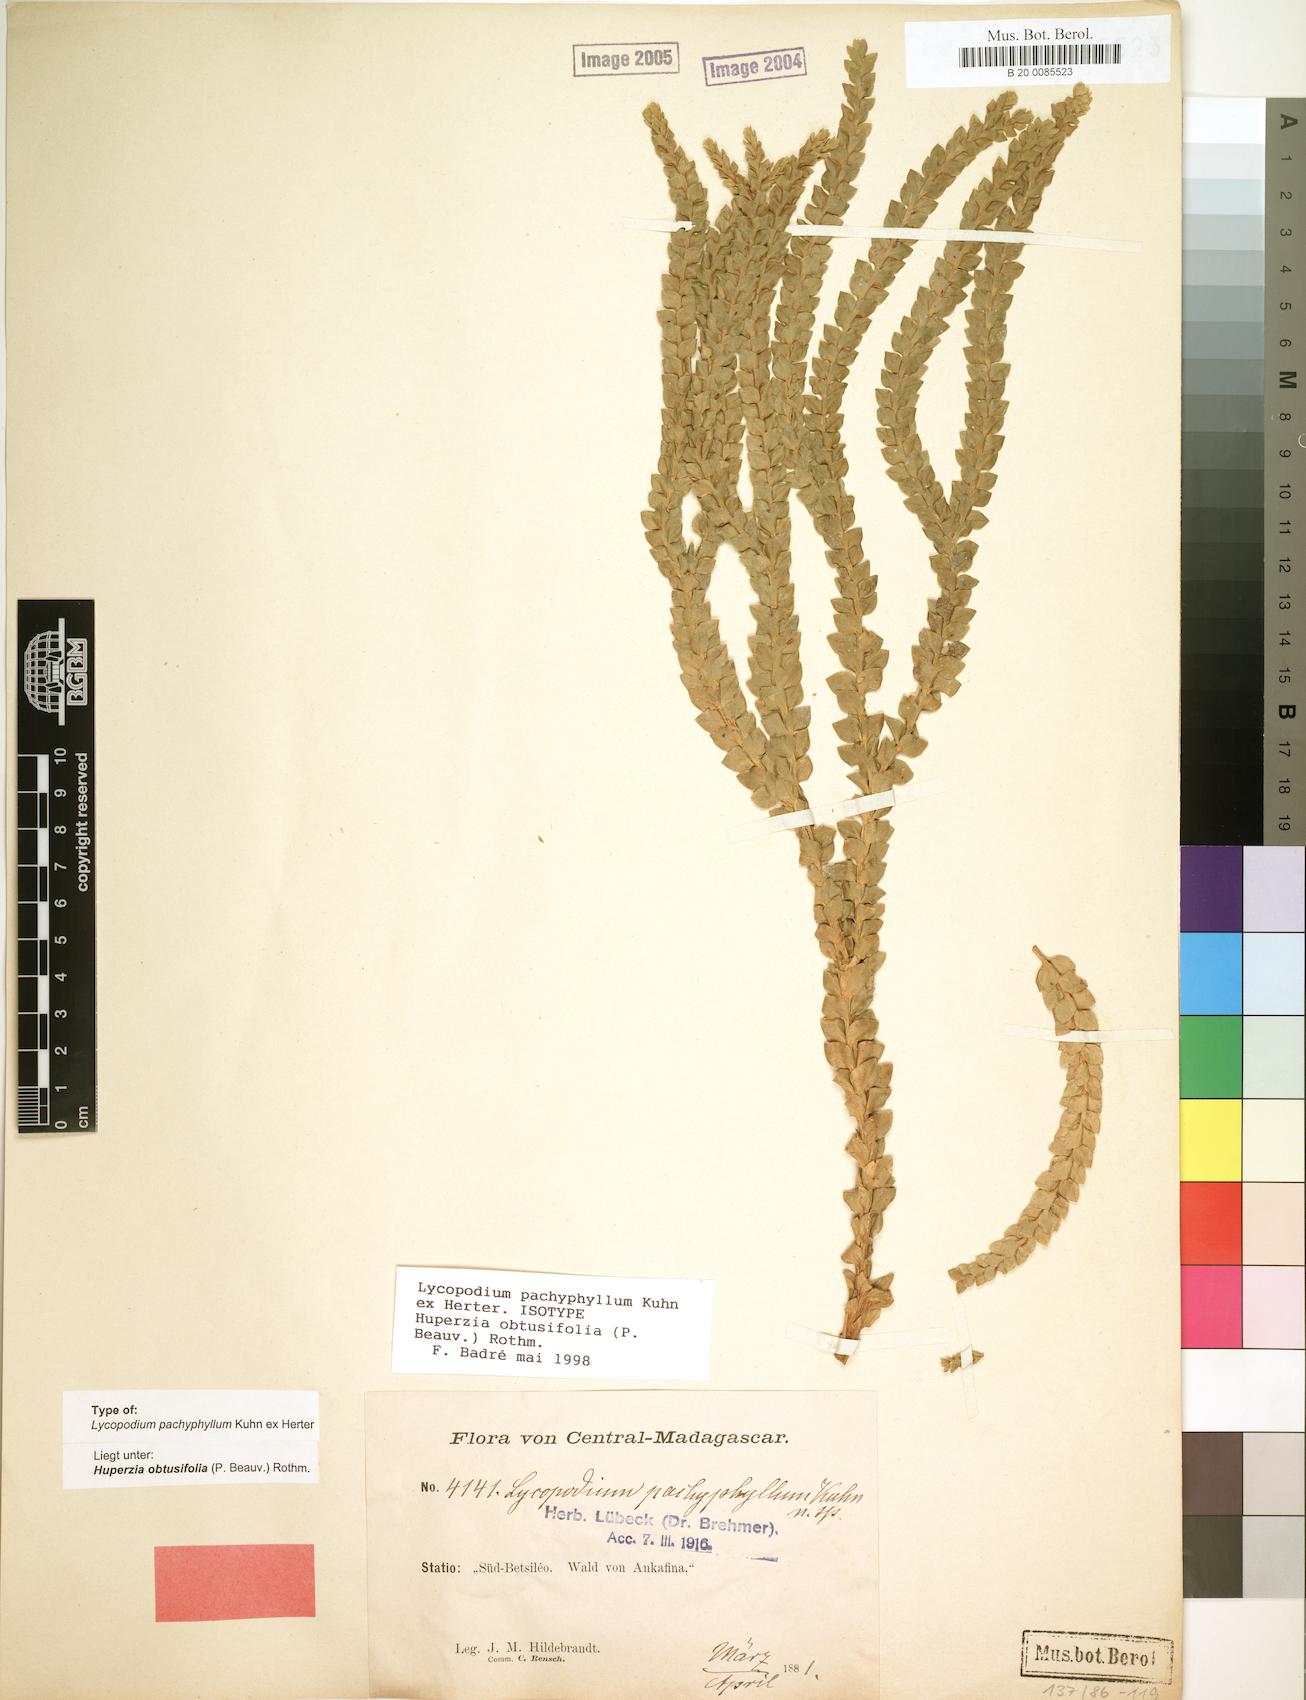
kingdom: Plantae
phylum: Tracheophyta
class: Lycopodiopsida
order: Lycopodiales
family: Lycopodiaceae
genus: Phlegmariurus
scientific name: Phlegmariurus pachyphyllus
